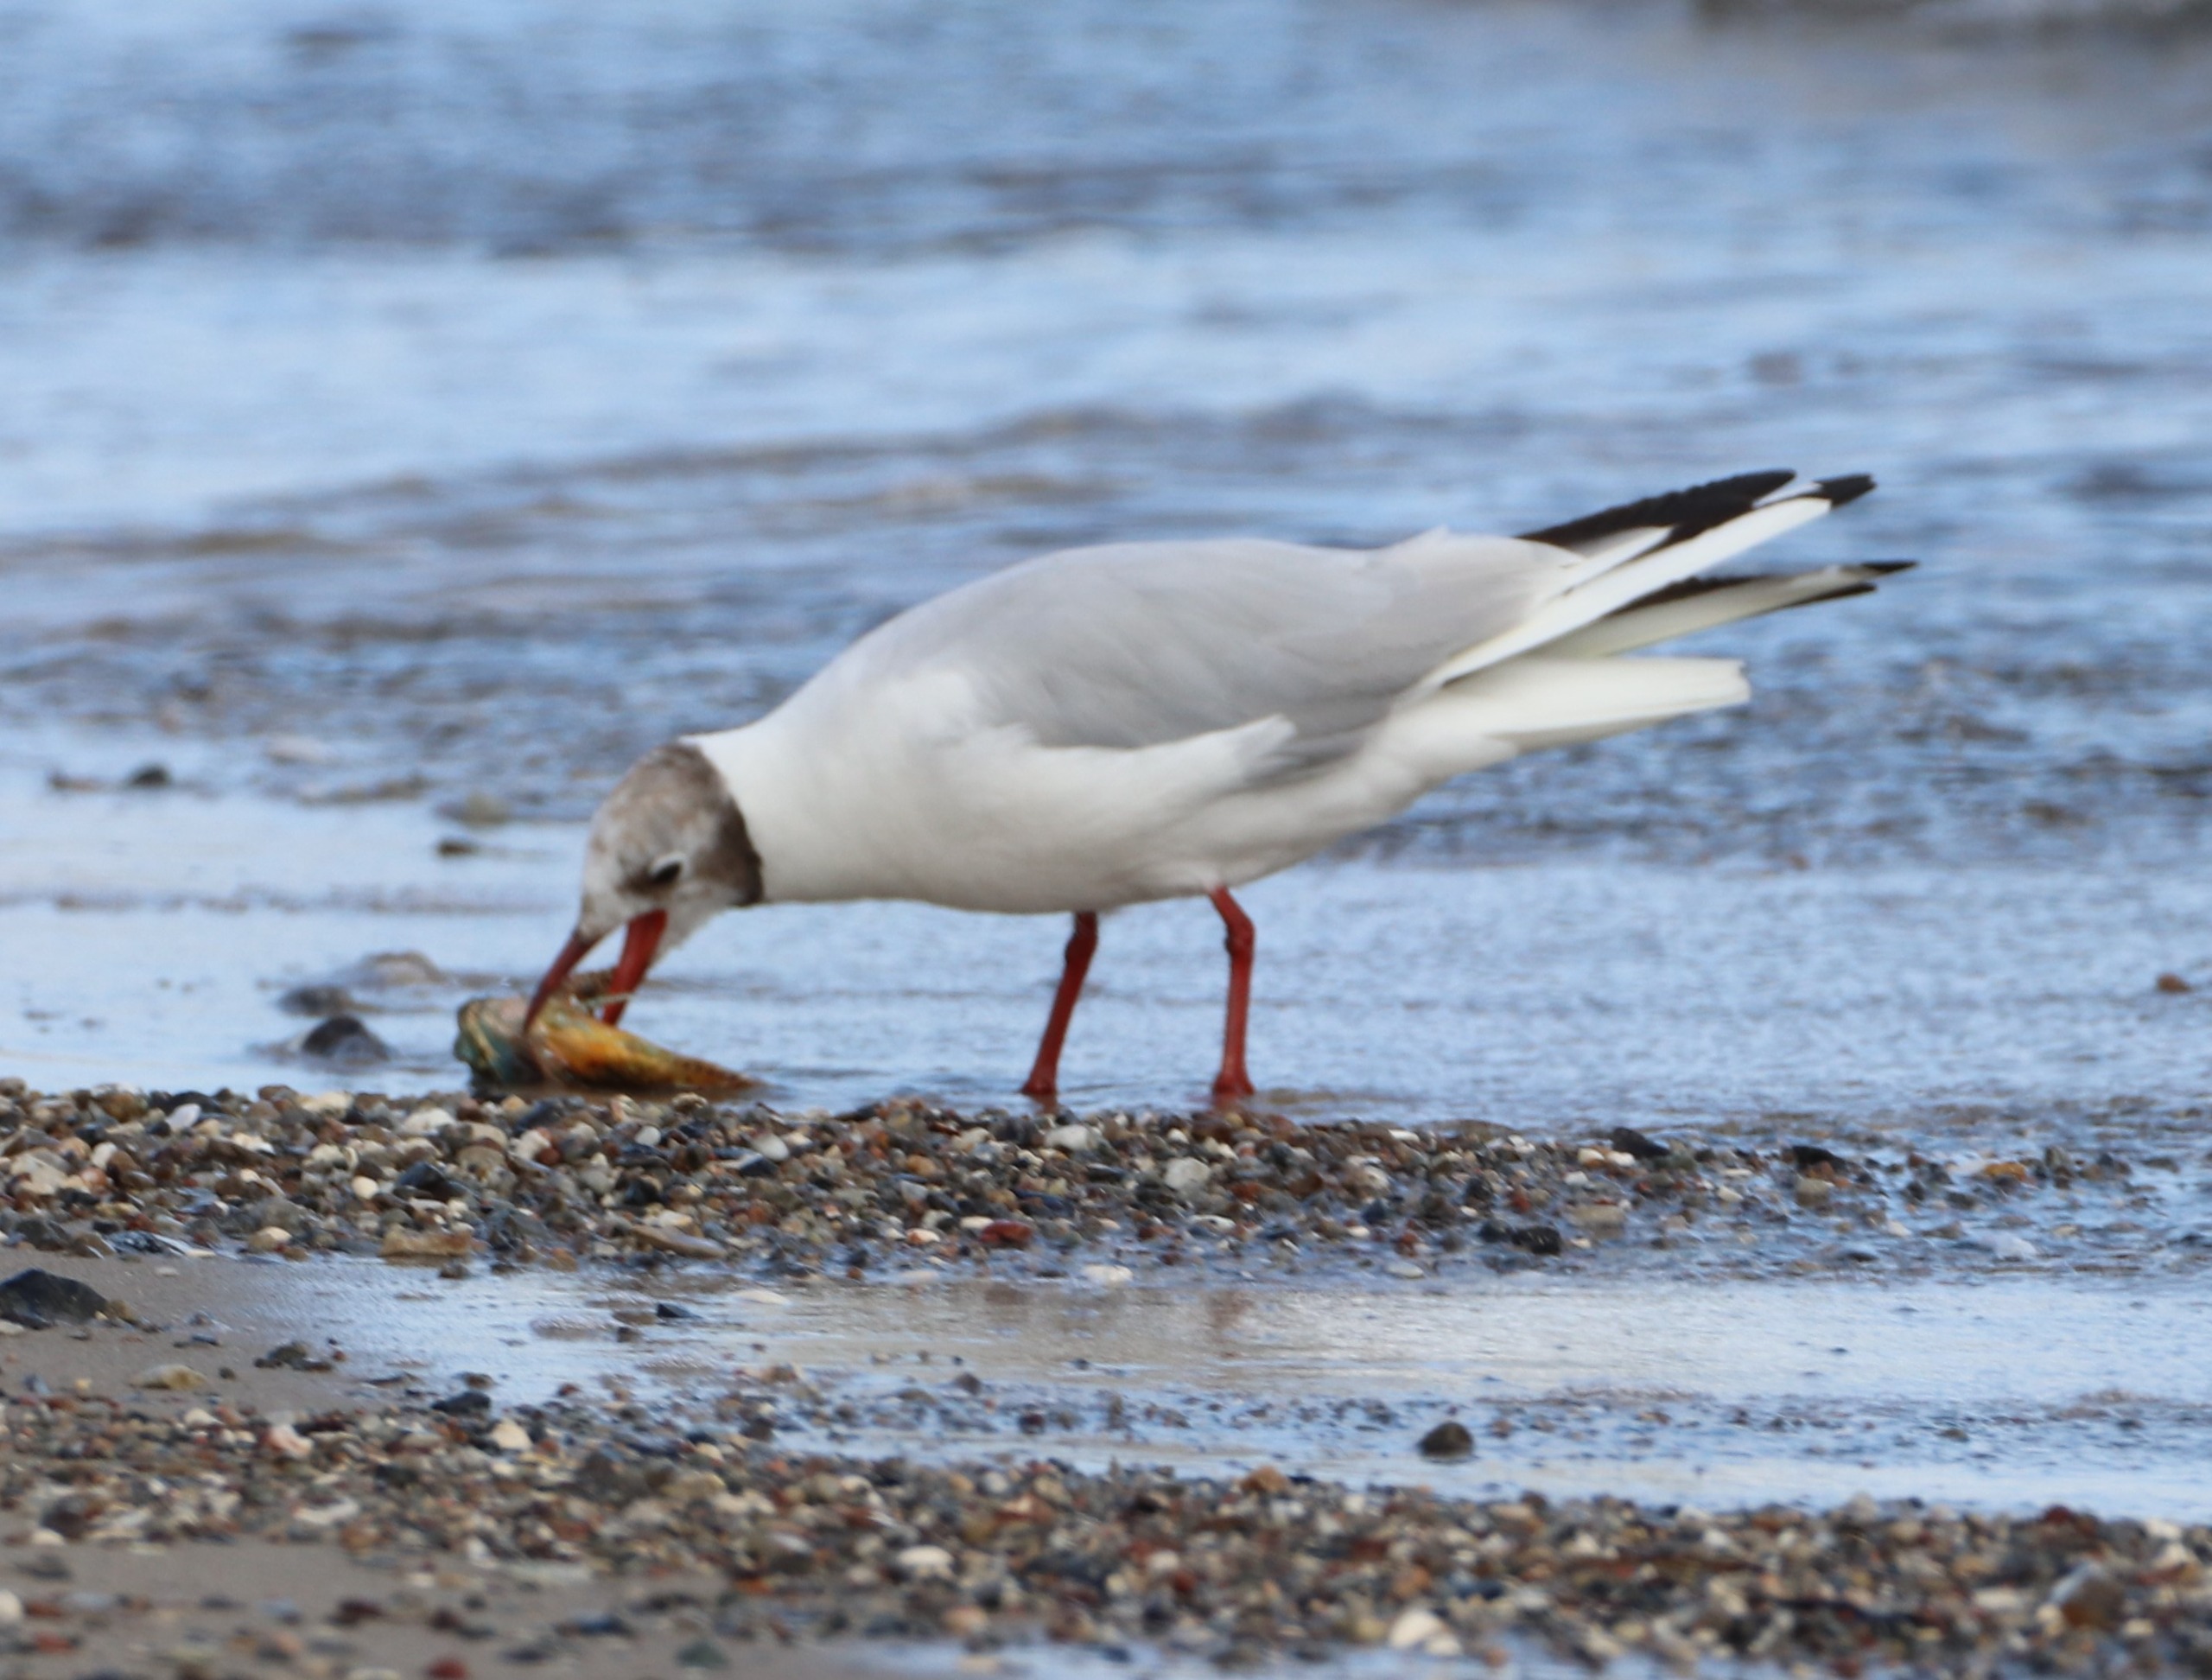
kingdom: Animalia
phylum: Chordata
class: Aves
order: Charadriiformes
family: Laridae
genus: Chroicocephalus
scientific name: Chroicocephalus ridibundus
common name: Hættemåge
